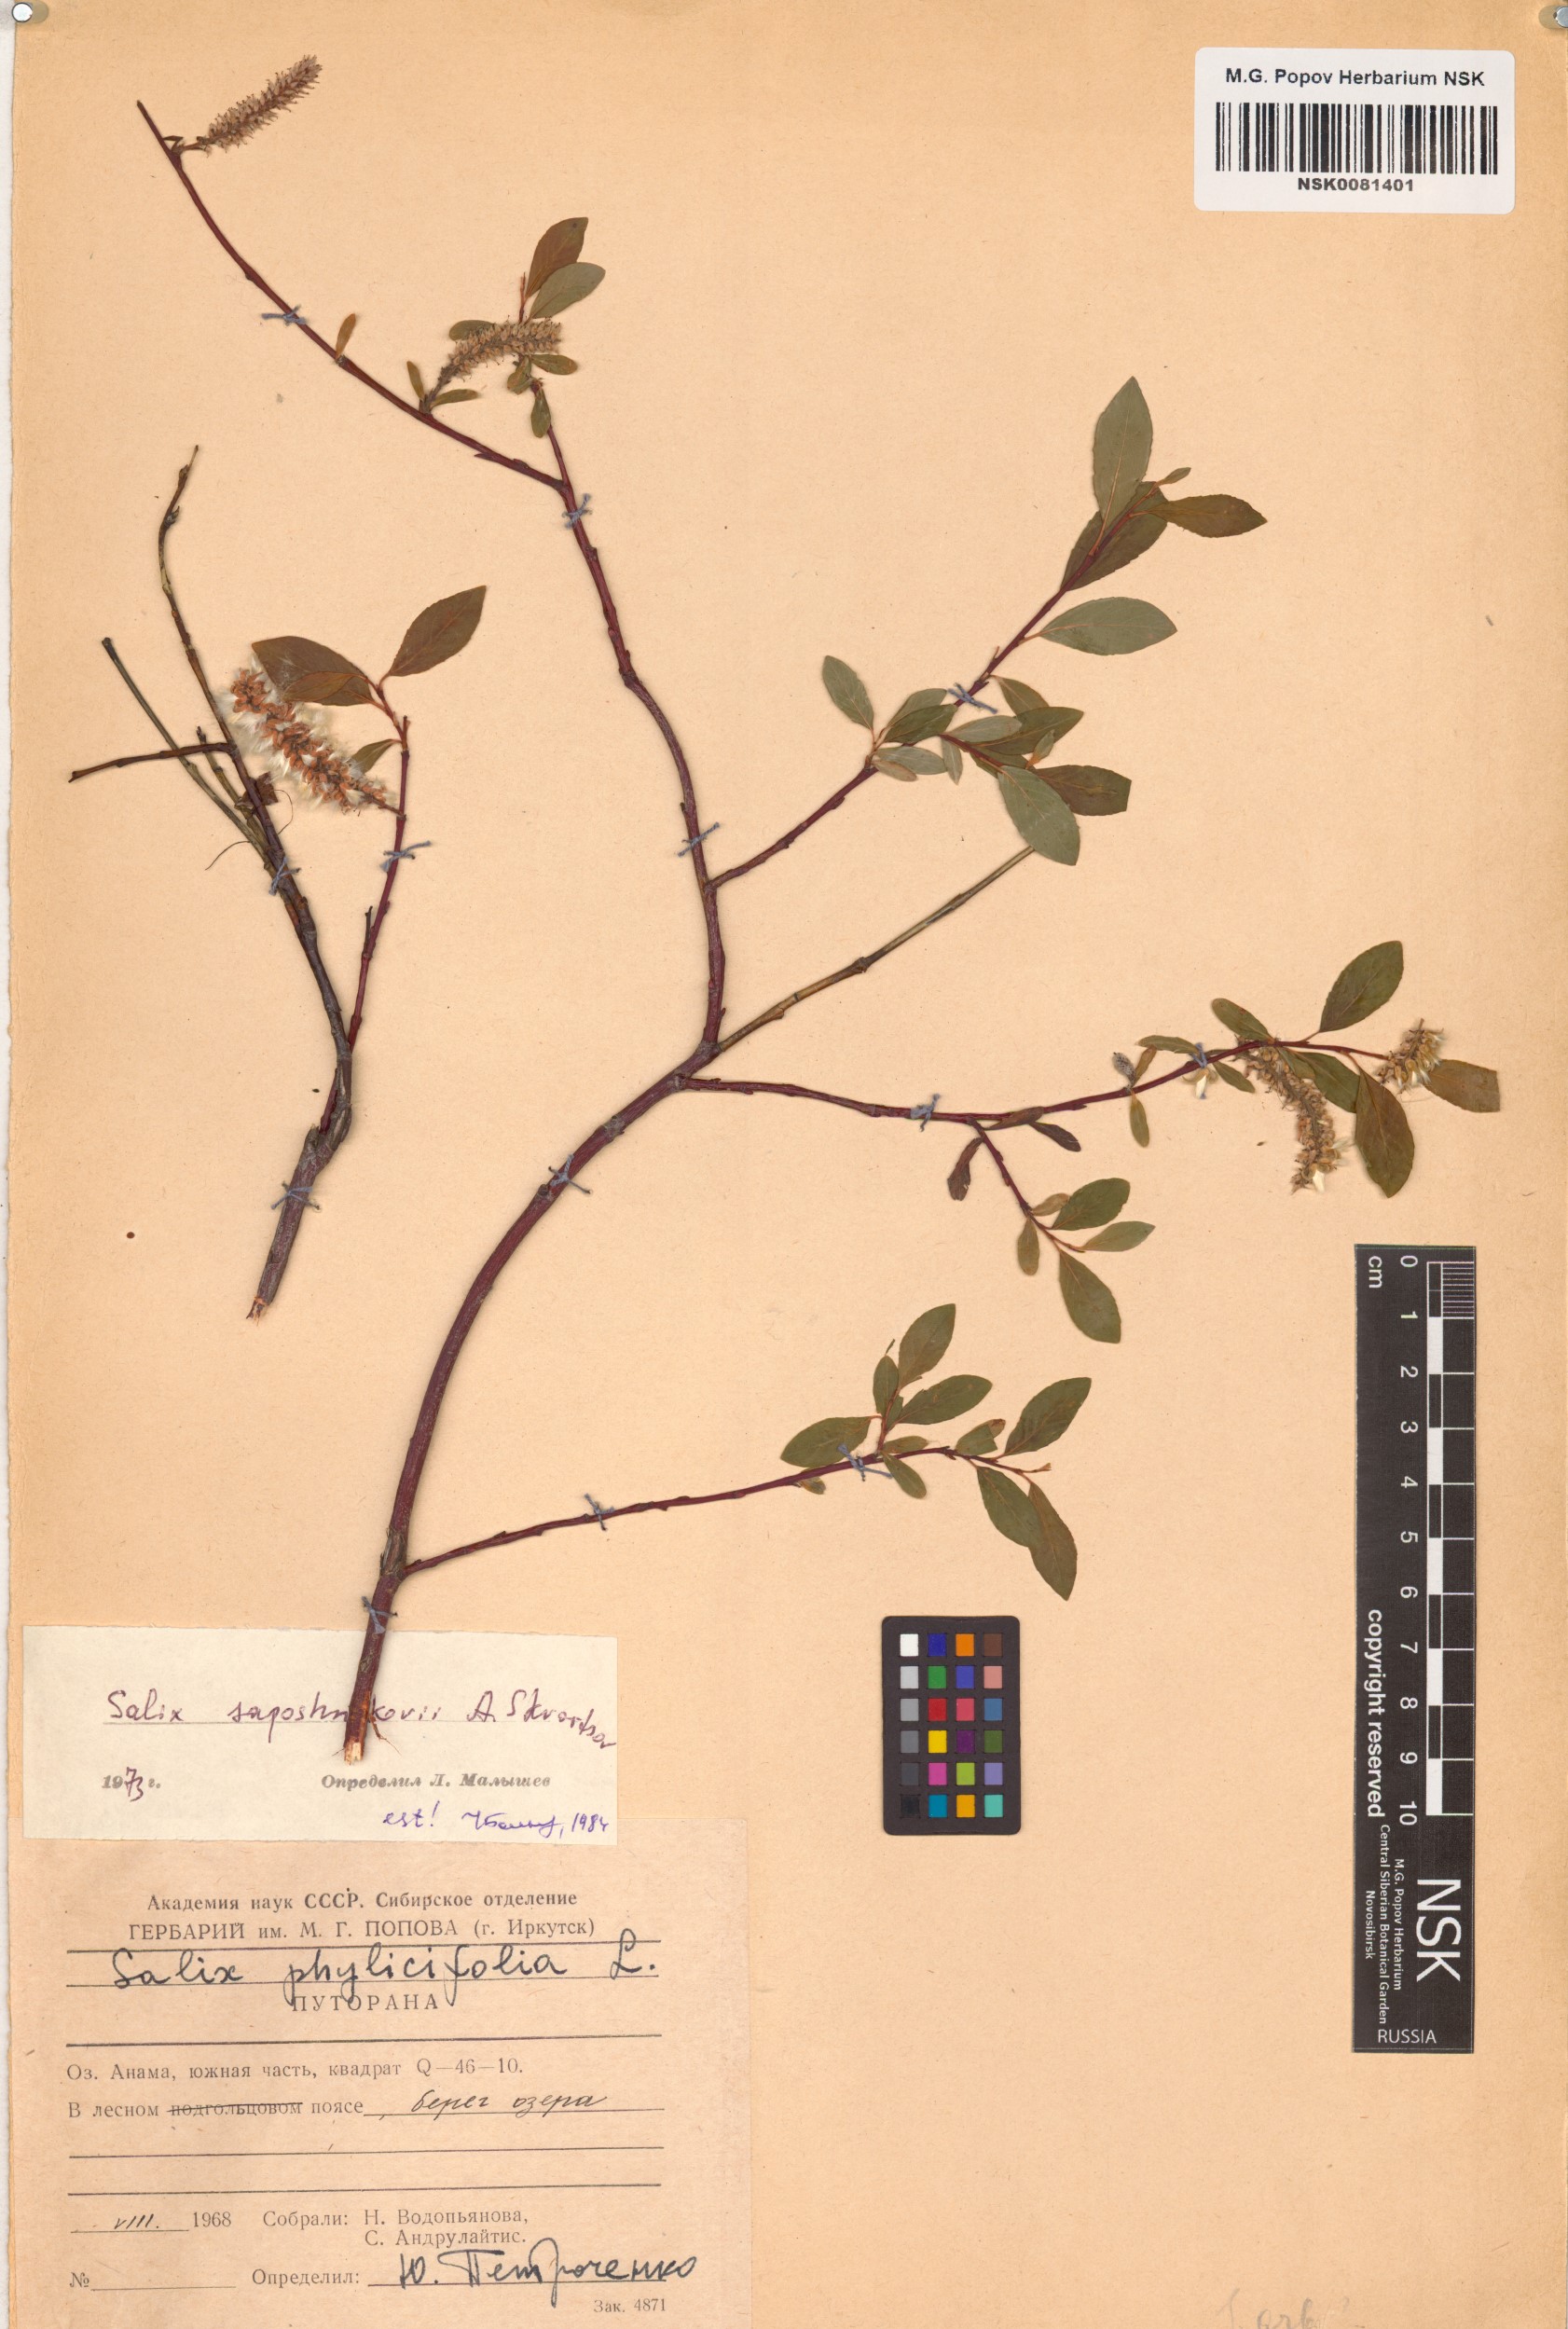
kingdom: Plantae
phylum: Tracheophyta
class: Magnoliopsida
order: Malpighiales
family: Salicaceae
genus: Salix
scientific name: Salix saposhnikovii
